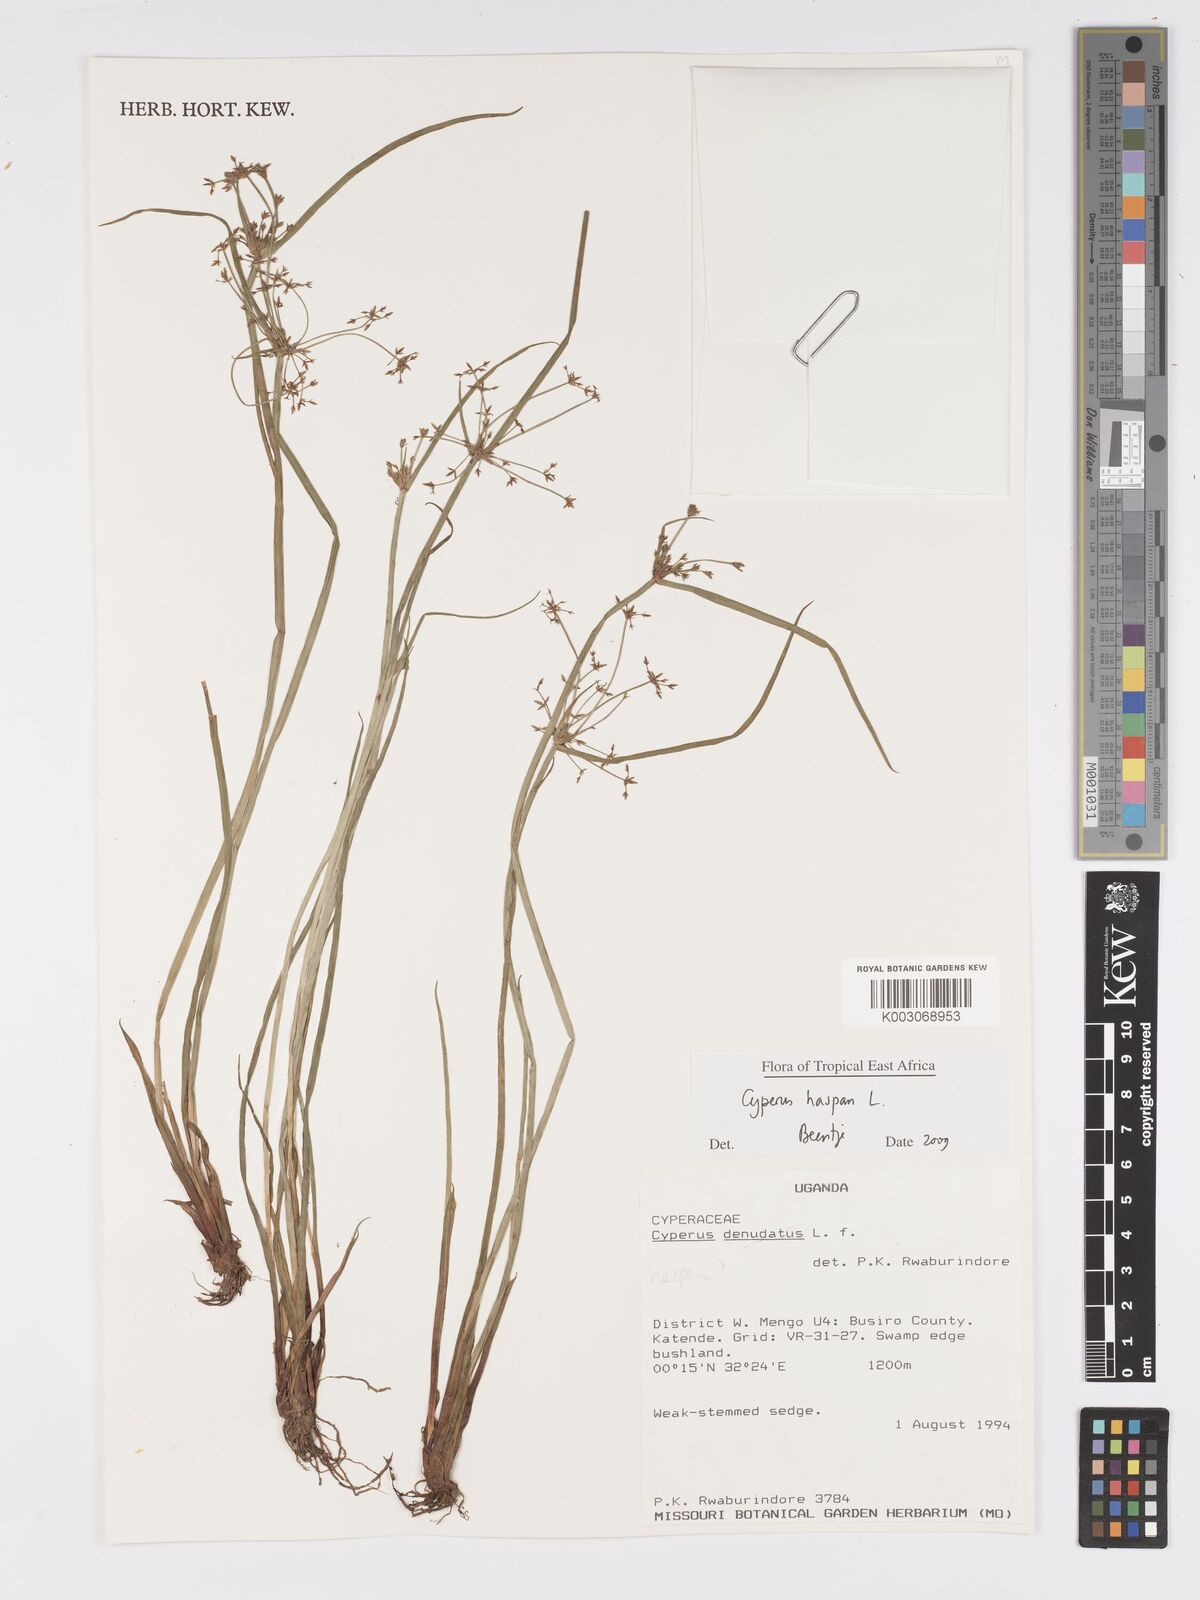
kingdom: Plantae
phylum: Tracheophyta
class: Liliopsida
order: Poales
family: Cyperaceae
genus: Cyperus
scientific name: Cyperus haspan
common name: Haspan flatsedge
